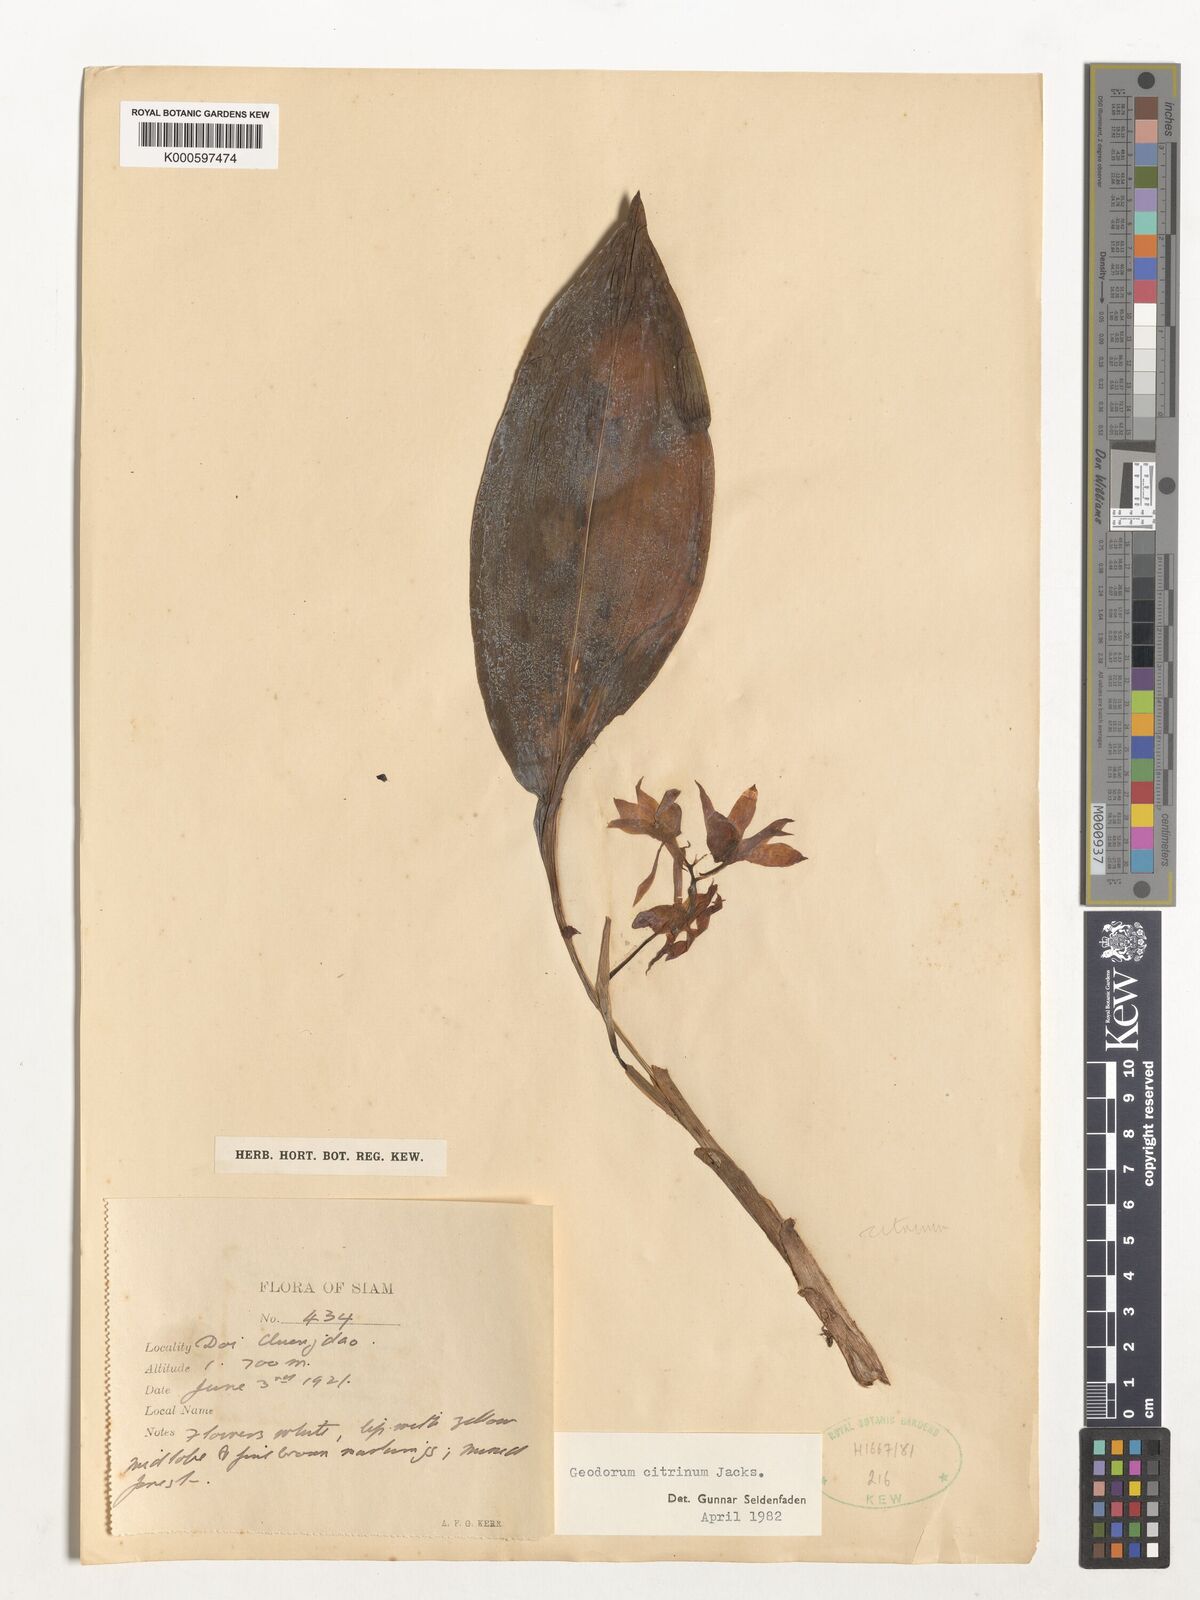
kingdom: Plantae
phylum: Tracheophyta
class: Liliopsida
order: Asparagales
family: Orchidaceae
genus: Geodorum
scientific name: Geodorum
